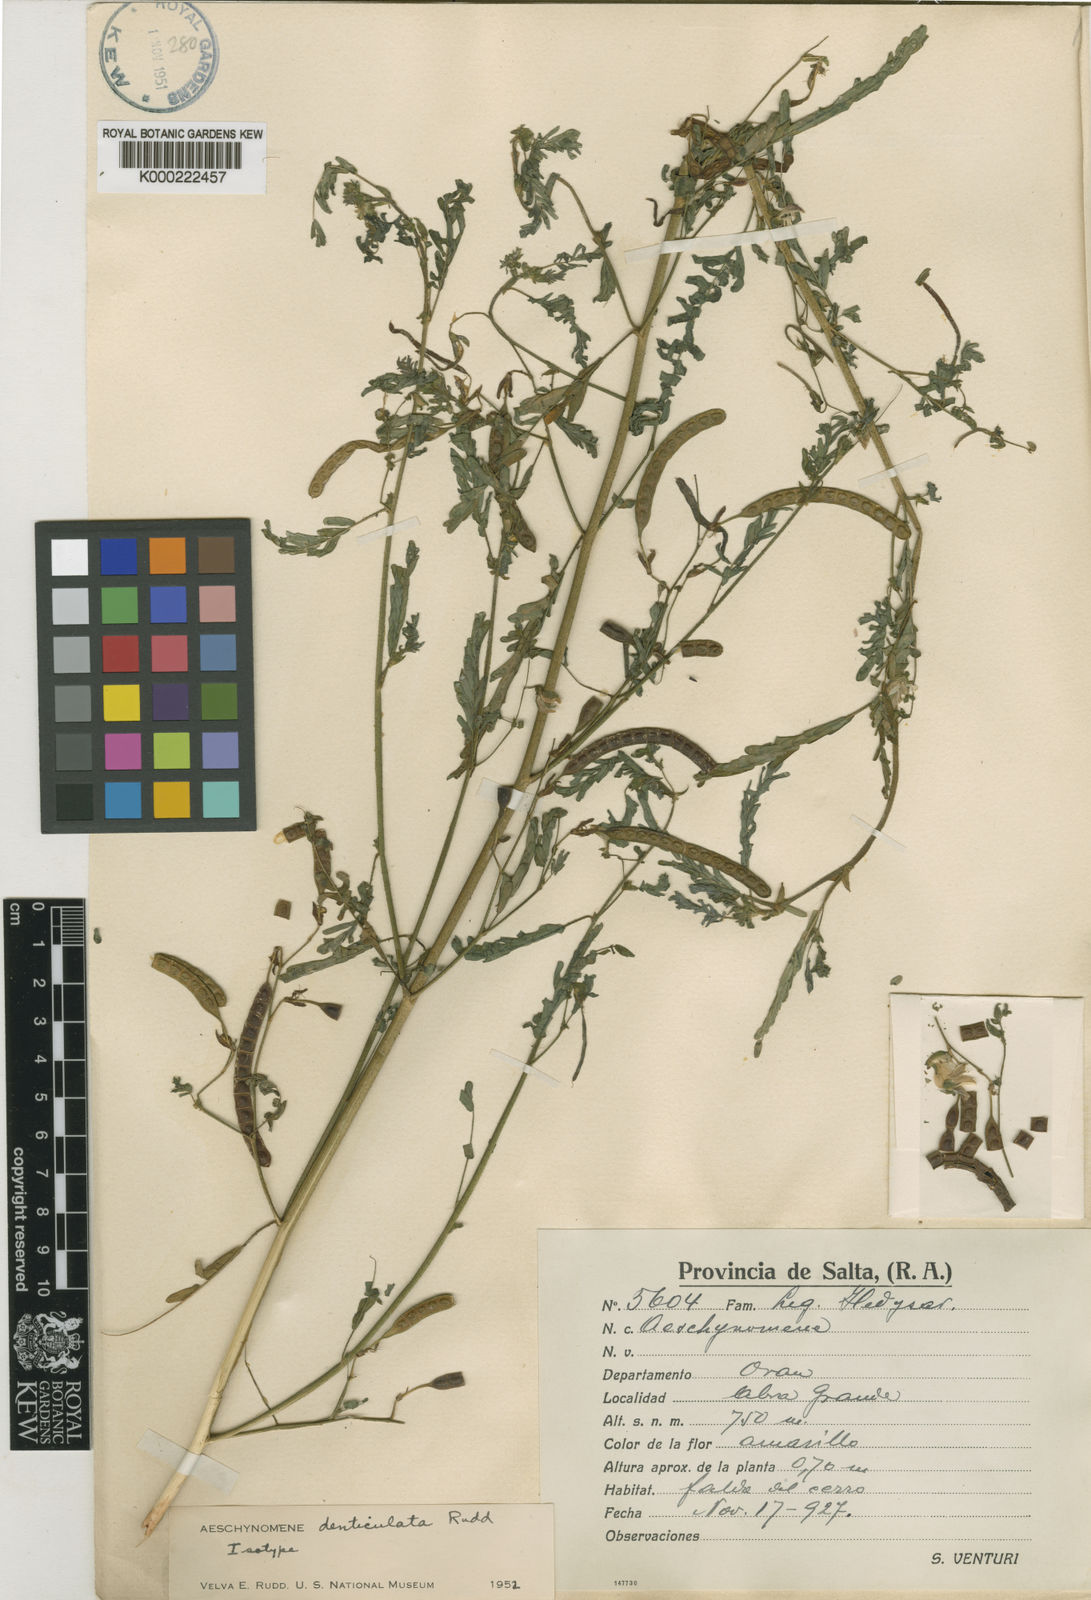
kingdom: Plantae
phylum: Tracheophyta
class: Magnoliopsida
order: Fabales
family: Fabaceae
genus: Aeschynomene
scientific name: Aeschynomene denticulata
